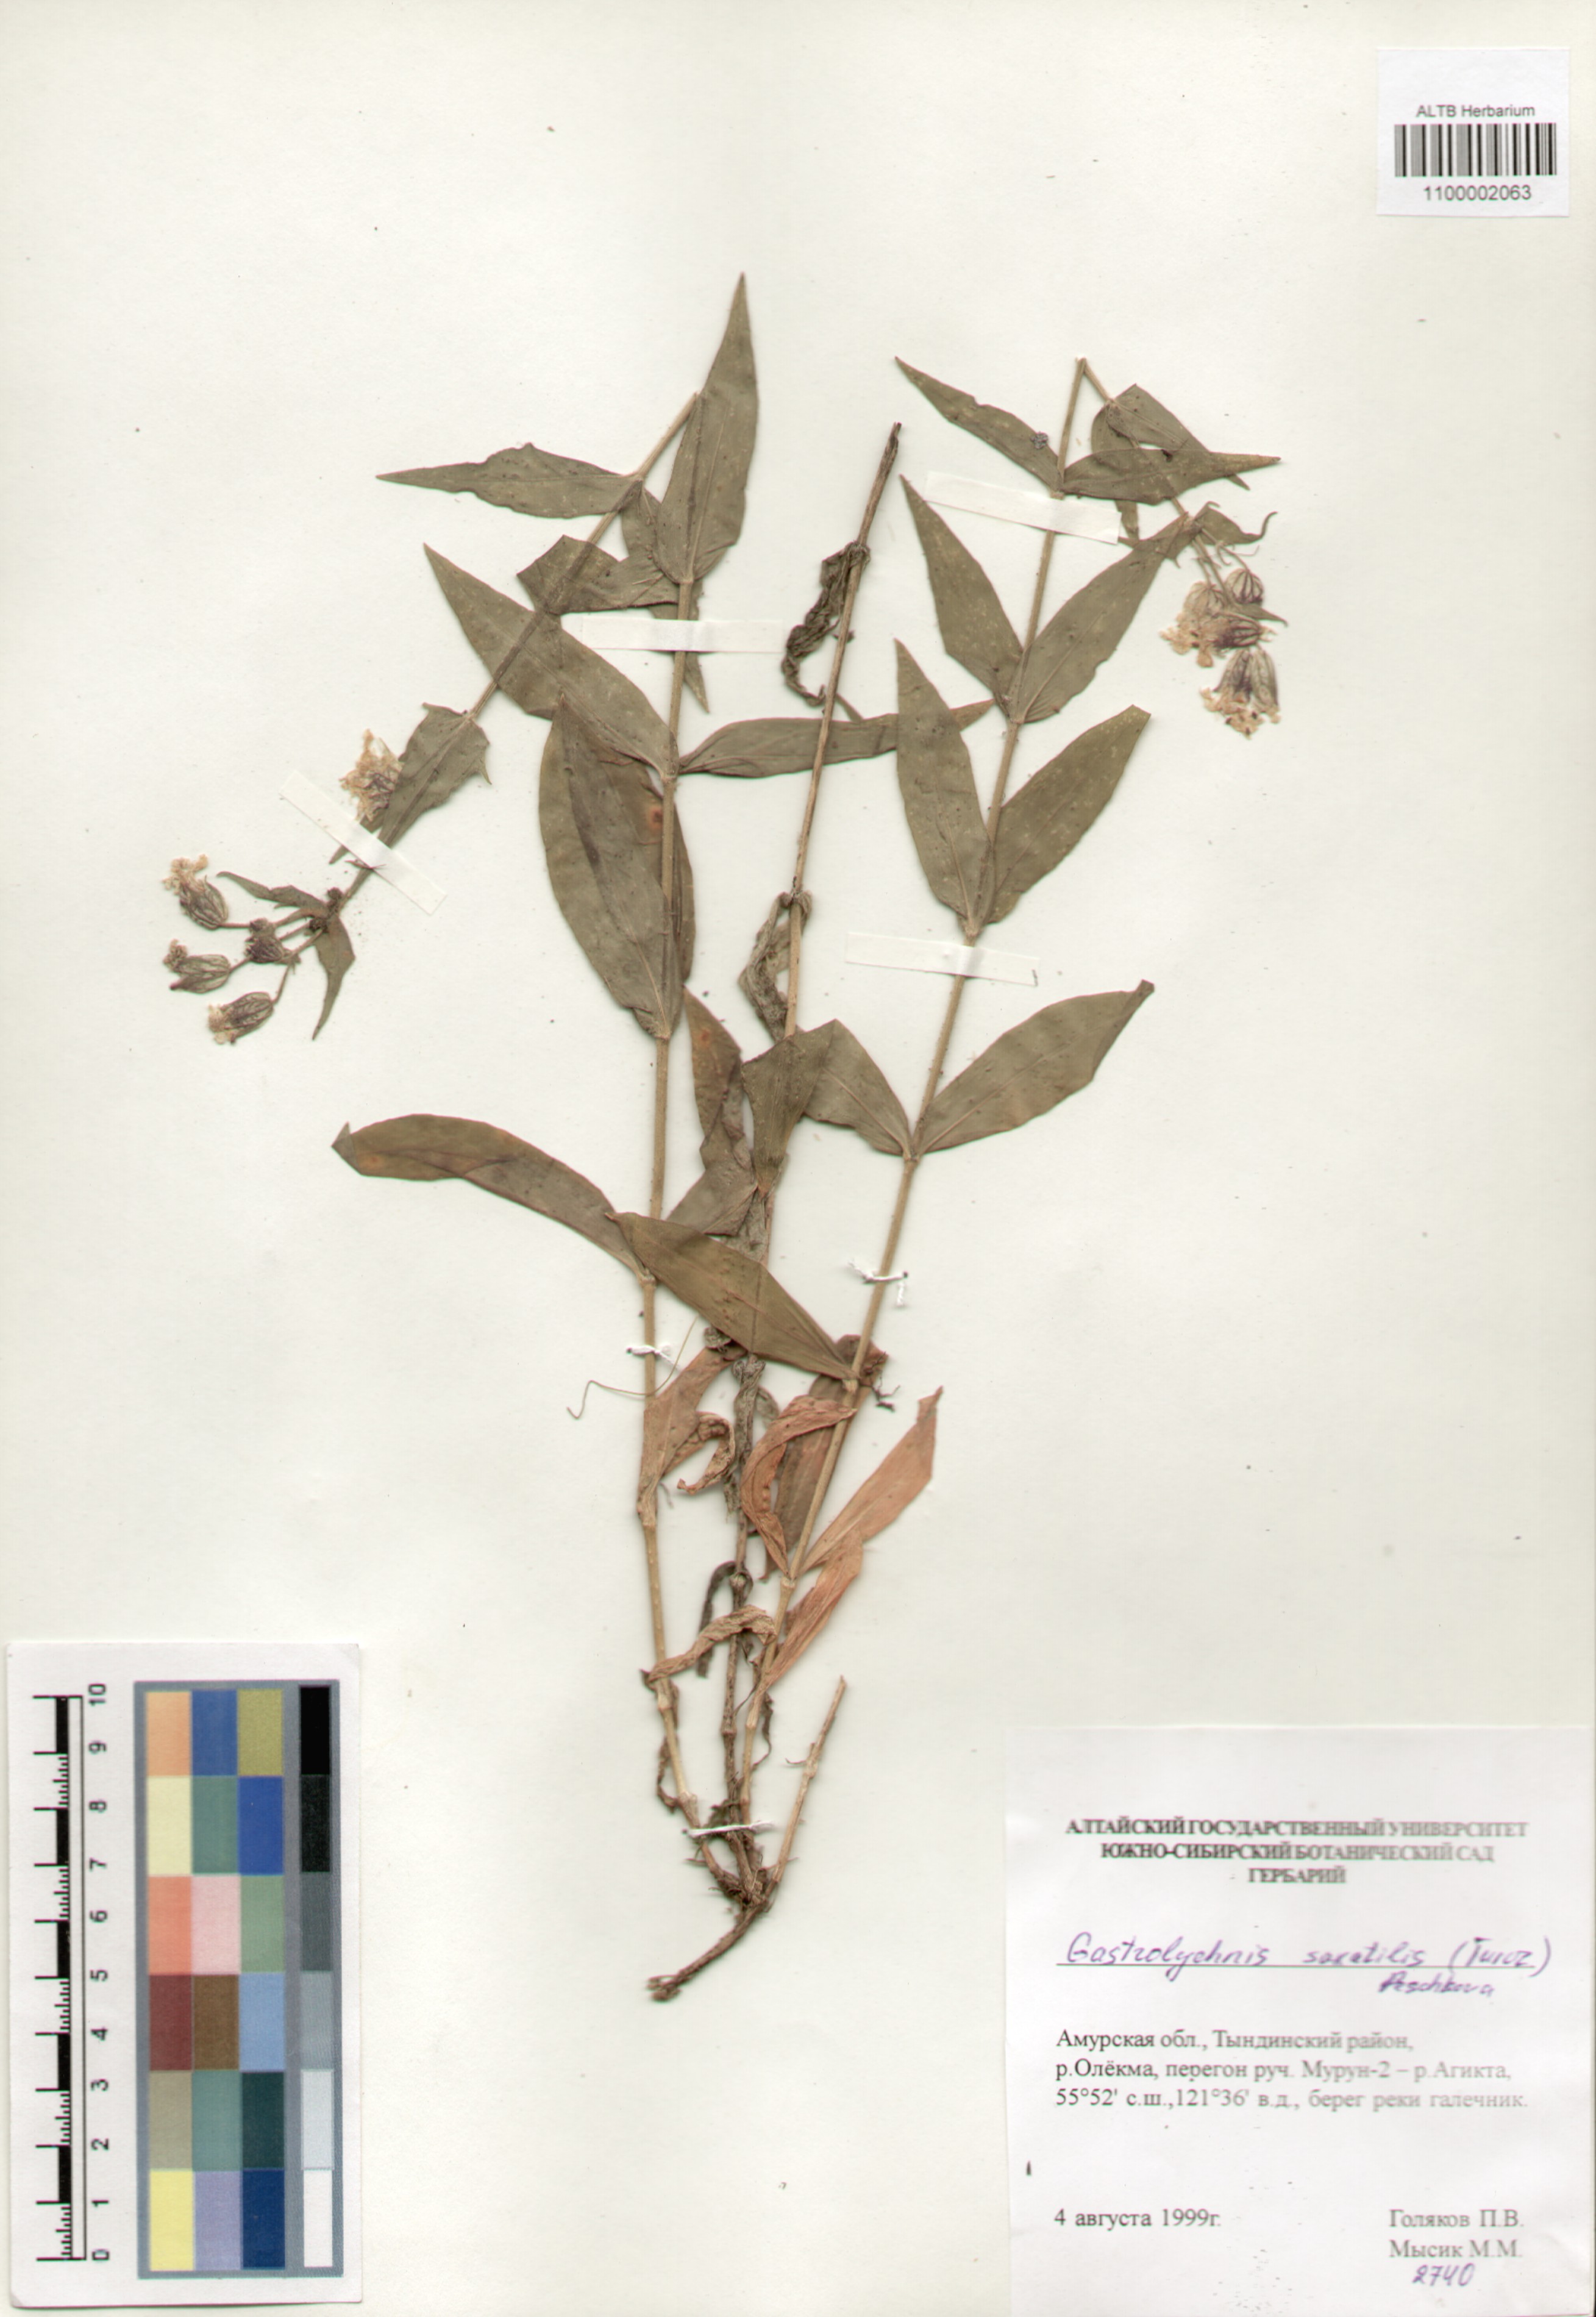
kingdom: Plantae
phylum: Tracheophyta
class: Magnoliopsida
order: Caryophyllales
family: Caryophyllaceae
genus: Silene
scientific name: Silene tolmatchevii
